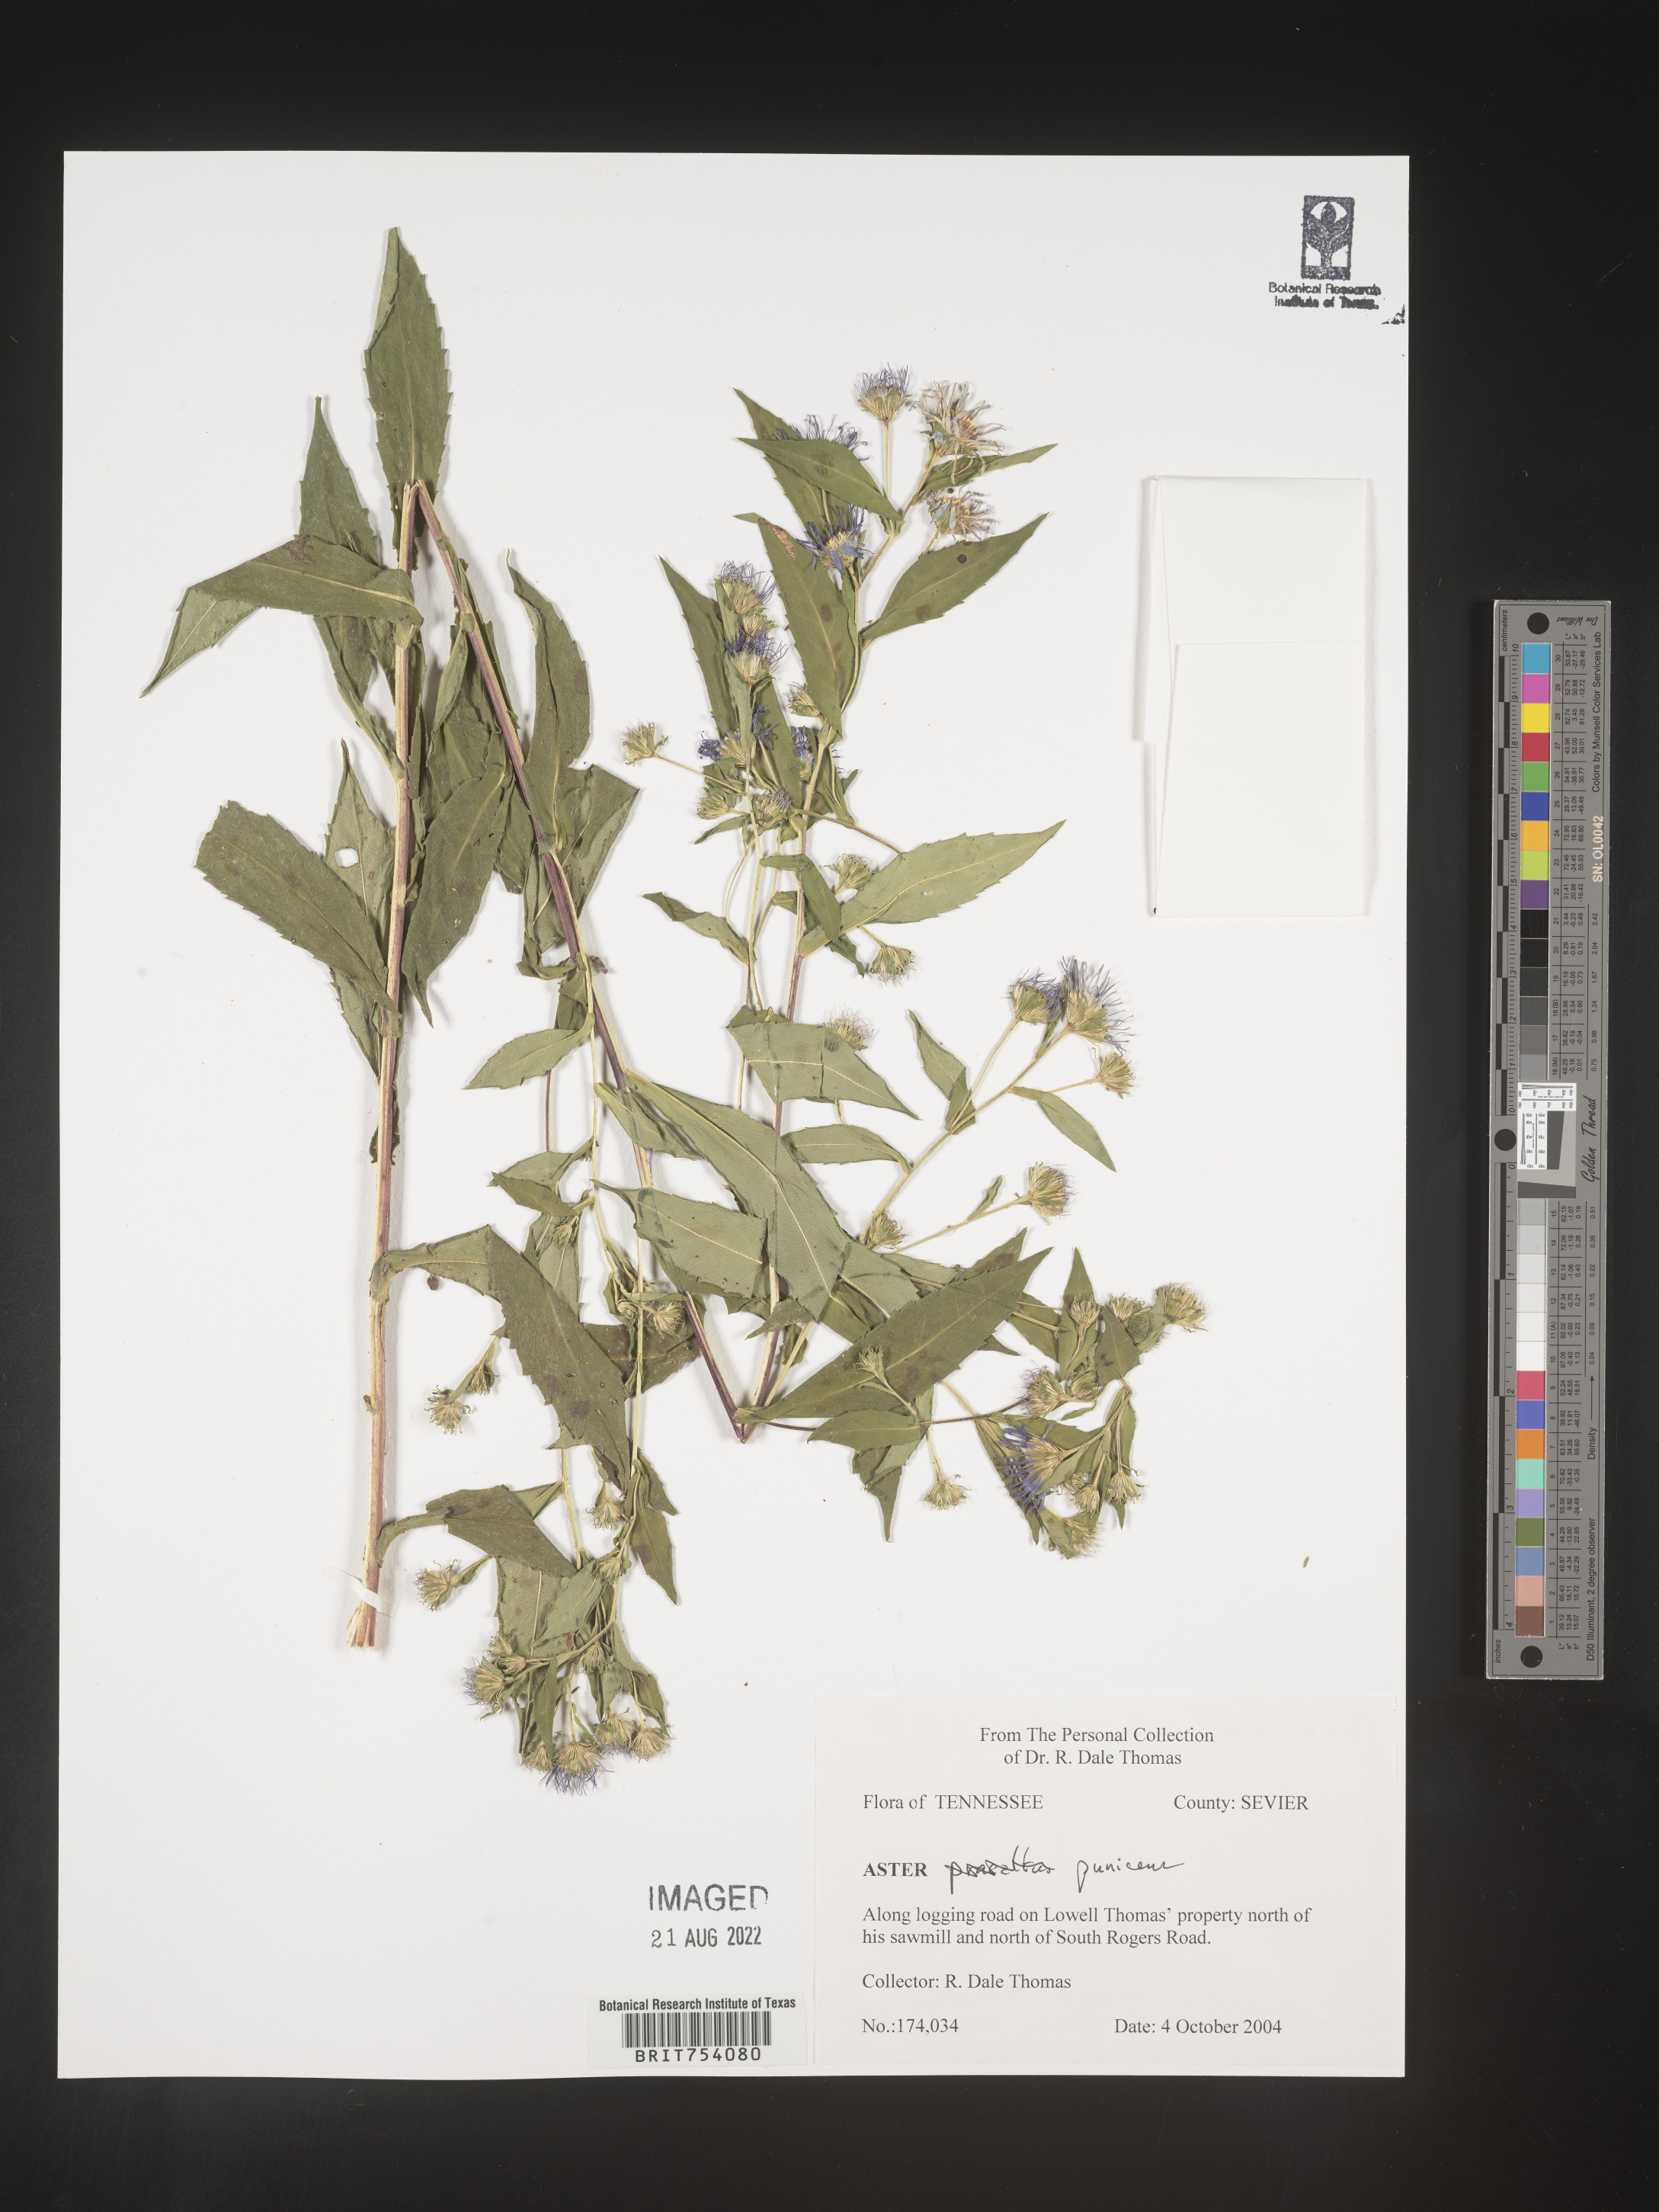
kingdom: Plantae
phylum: Tracheophyta
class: Magnoliopsida
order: Asterales
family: Asteraceae
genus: Symphyotrichum
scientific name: Symphyotrichum puniceum
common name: Bog aster
